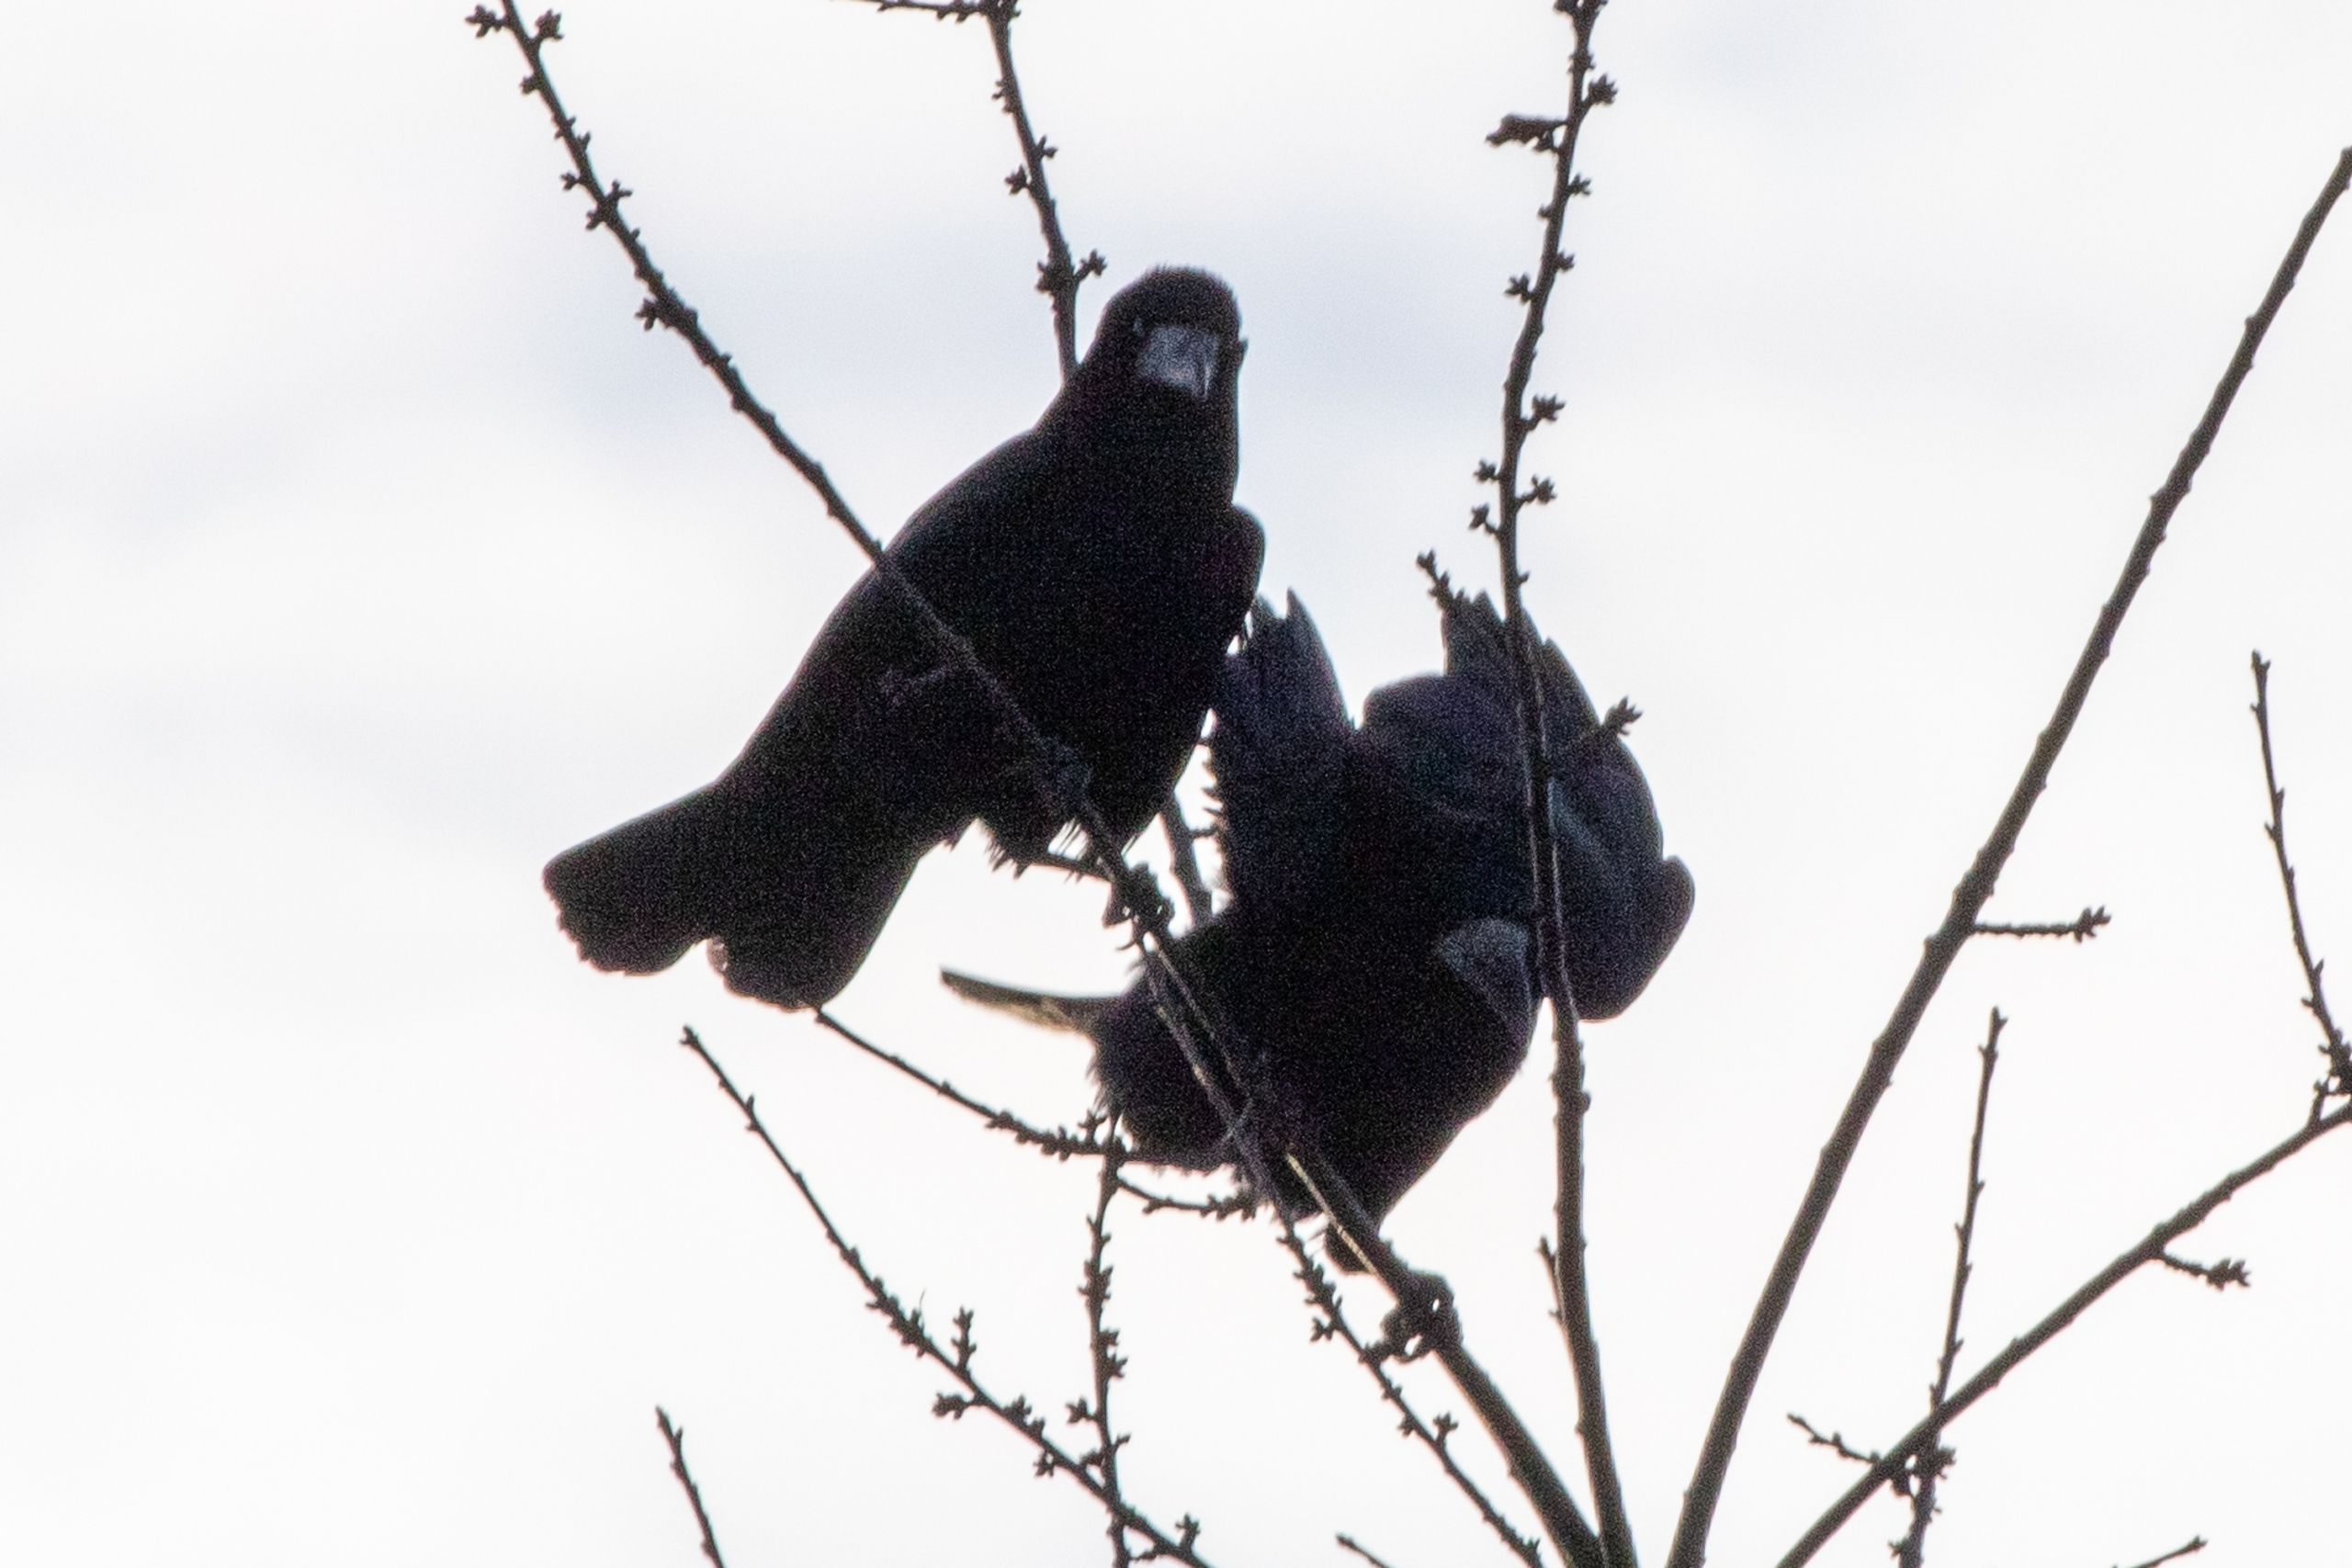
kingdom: Animalia
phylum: Chordata
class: Aves
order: Passeriformes
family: Corvidae
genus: Corvus
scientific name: Corvus frugilegus
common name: Råge
